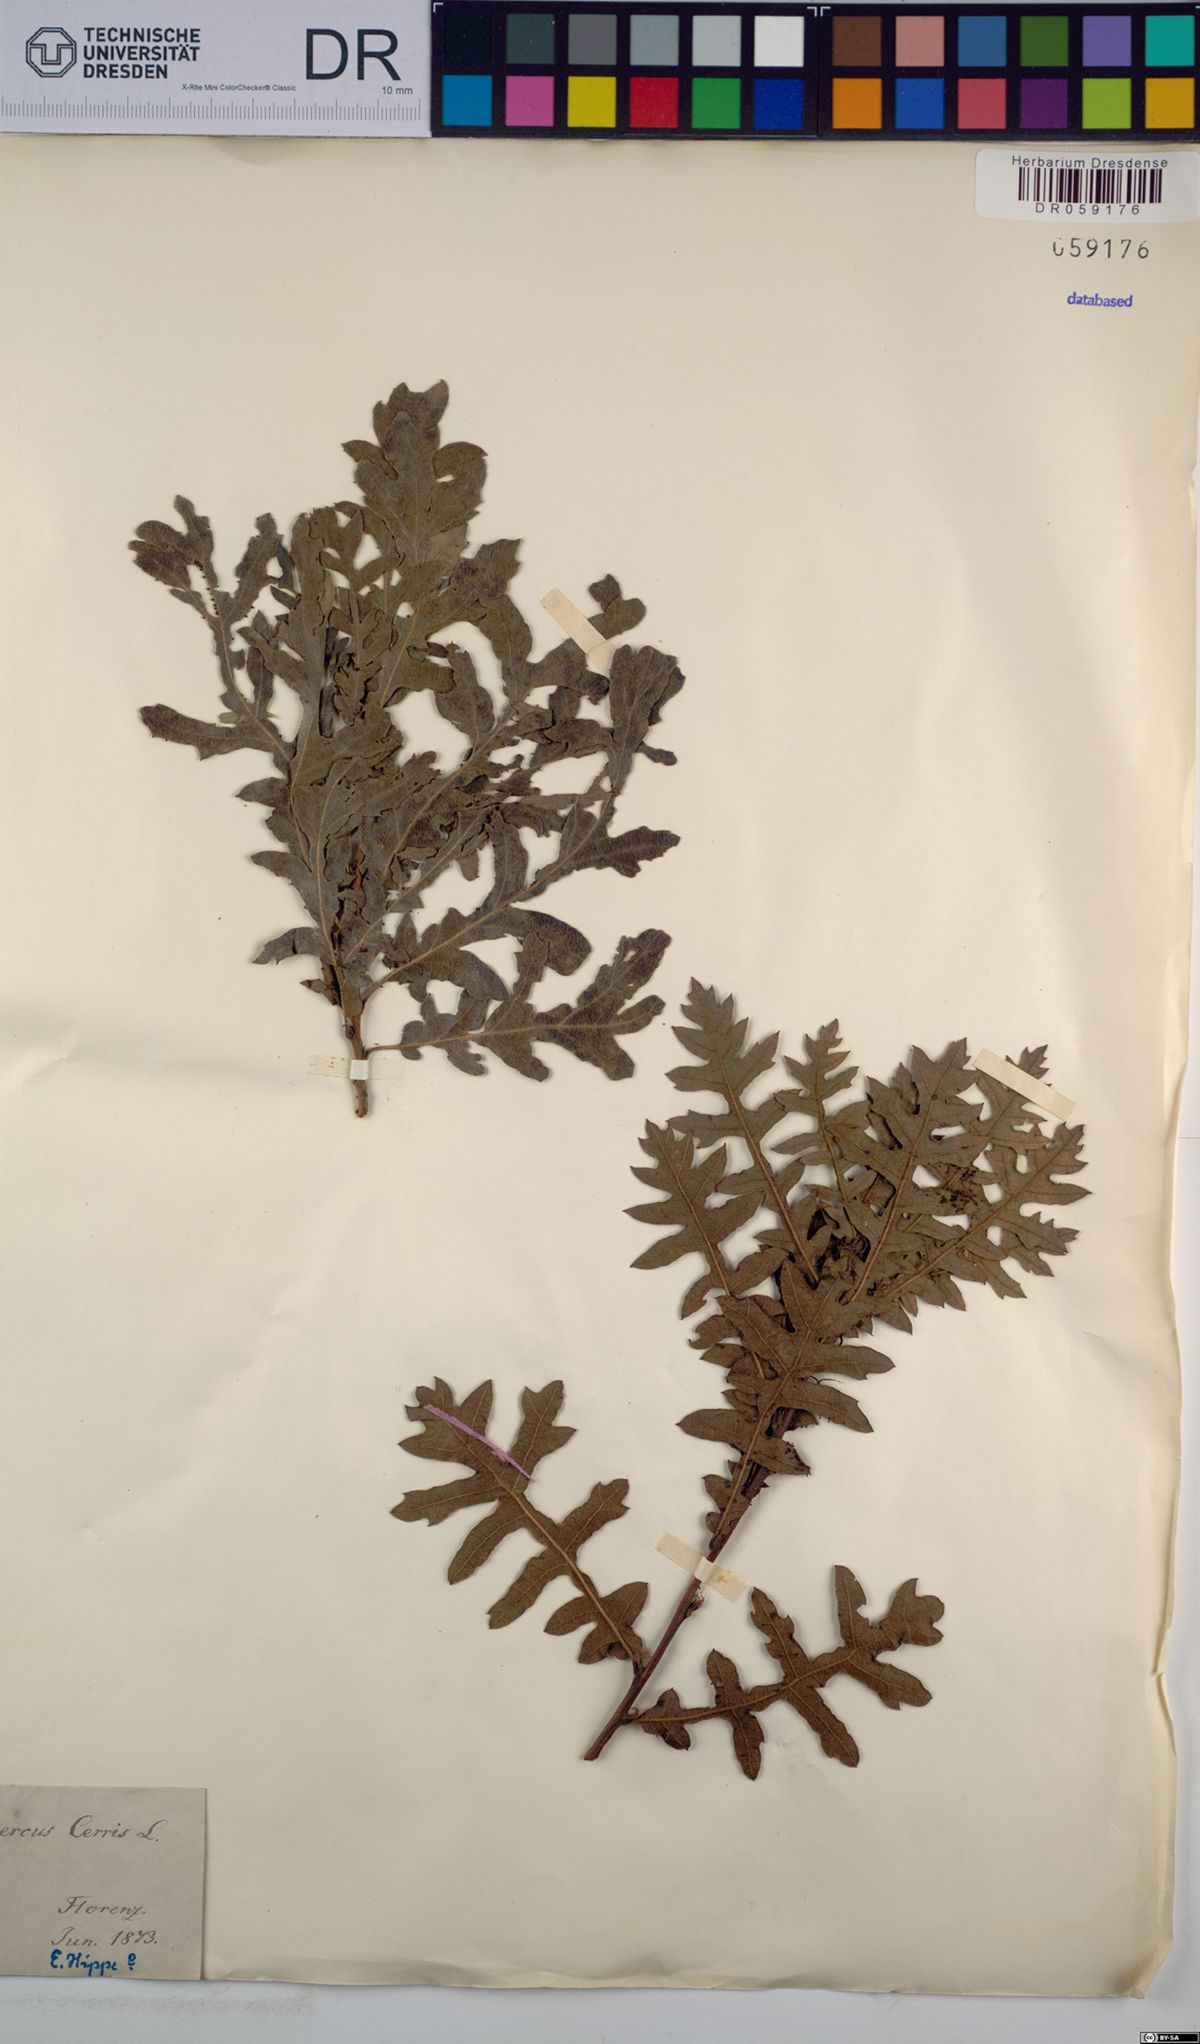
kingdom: Plantae
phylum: Tracheophyta
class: Magnoliopsida
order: Fagales
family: Fagaceae
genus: Quercus
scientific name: Quercus cerris
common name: Turkey oak
